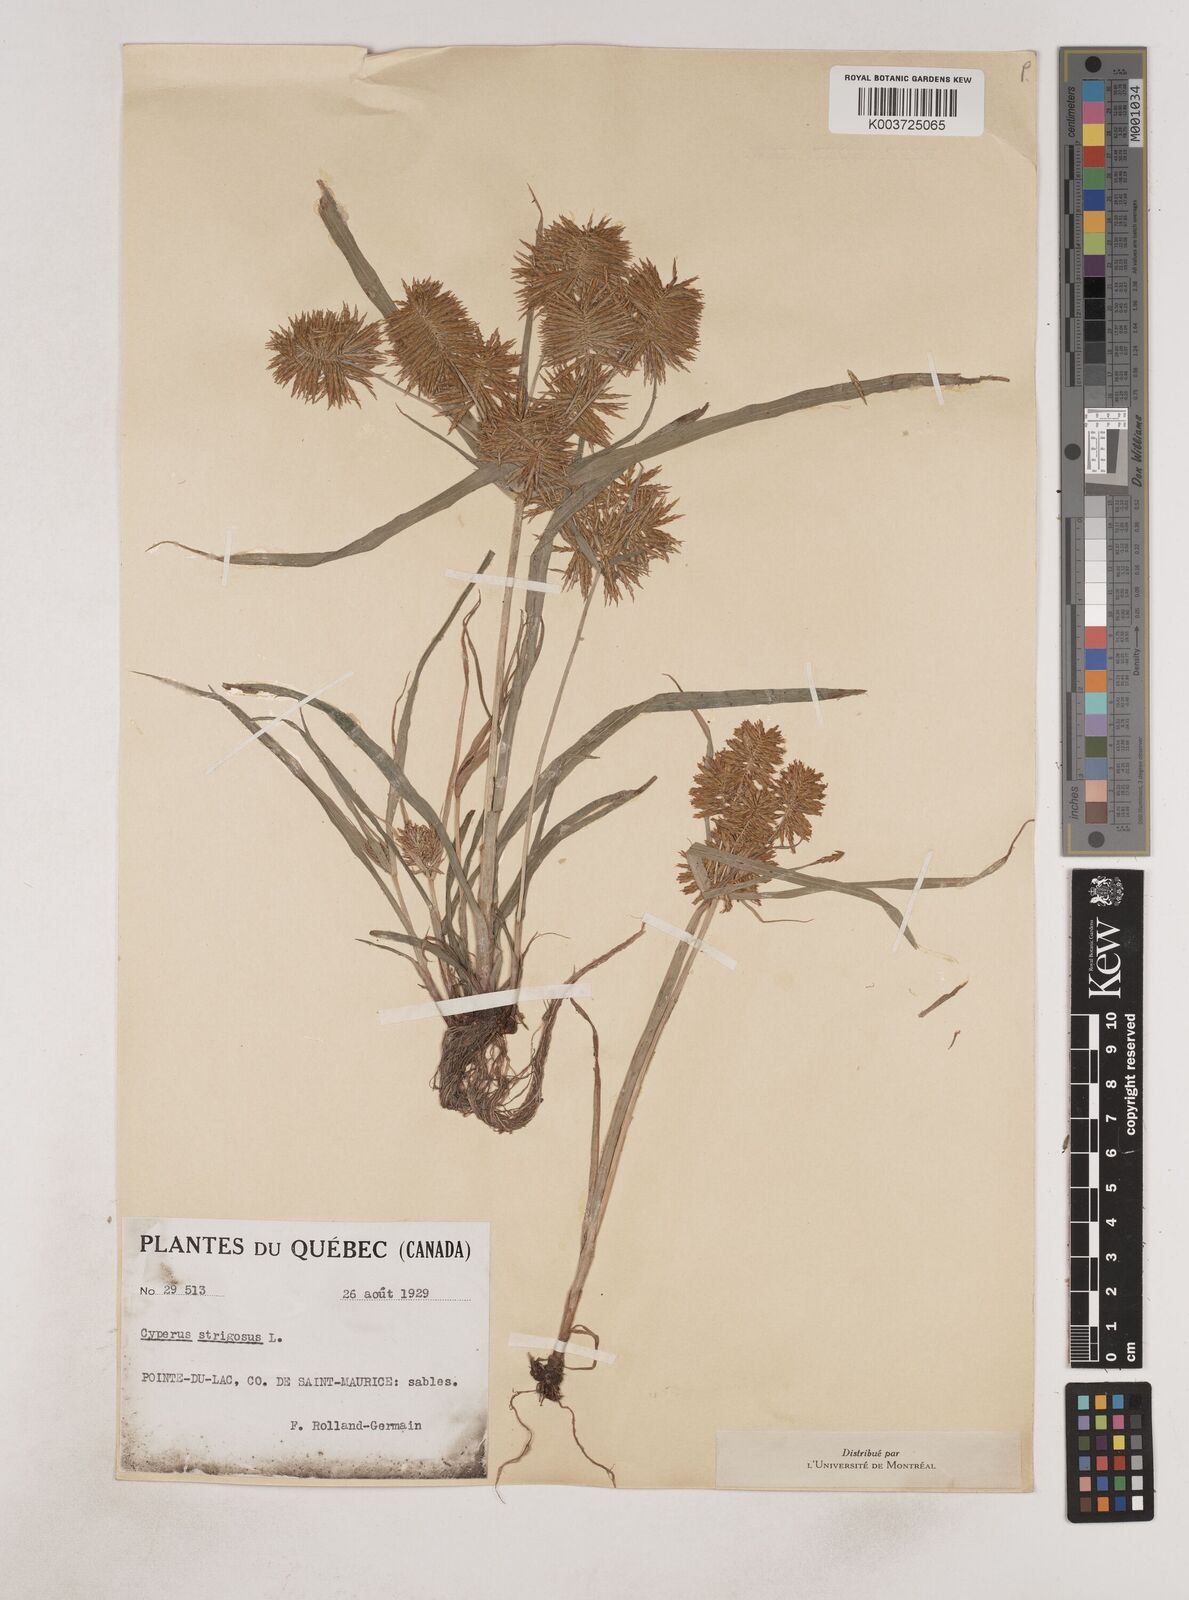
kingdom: Plantae
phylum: Tracheophyta
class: Liliopsida
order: Poales
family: Cyperaceae
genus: Cyperus
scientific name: Cyperus strigosus
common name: False nutsedge
